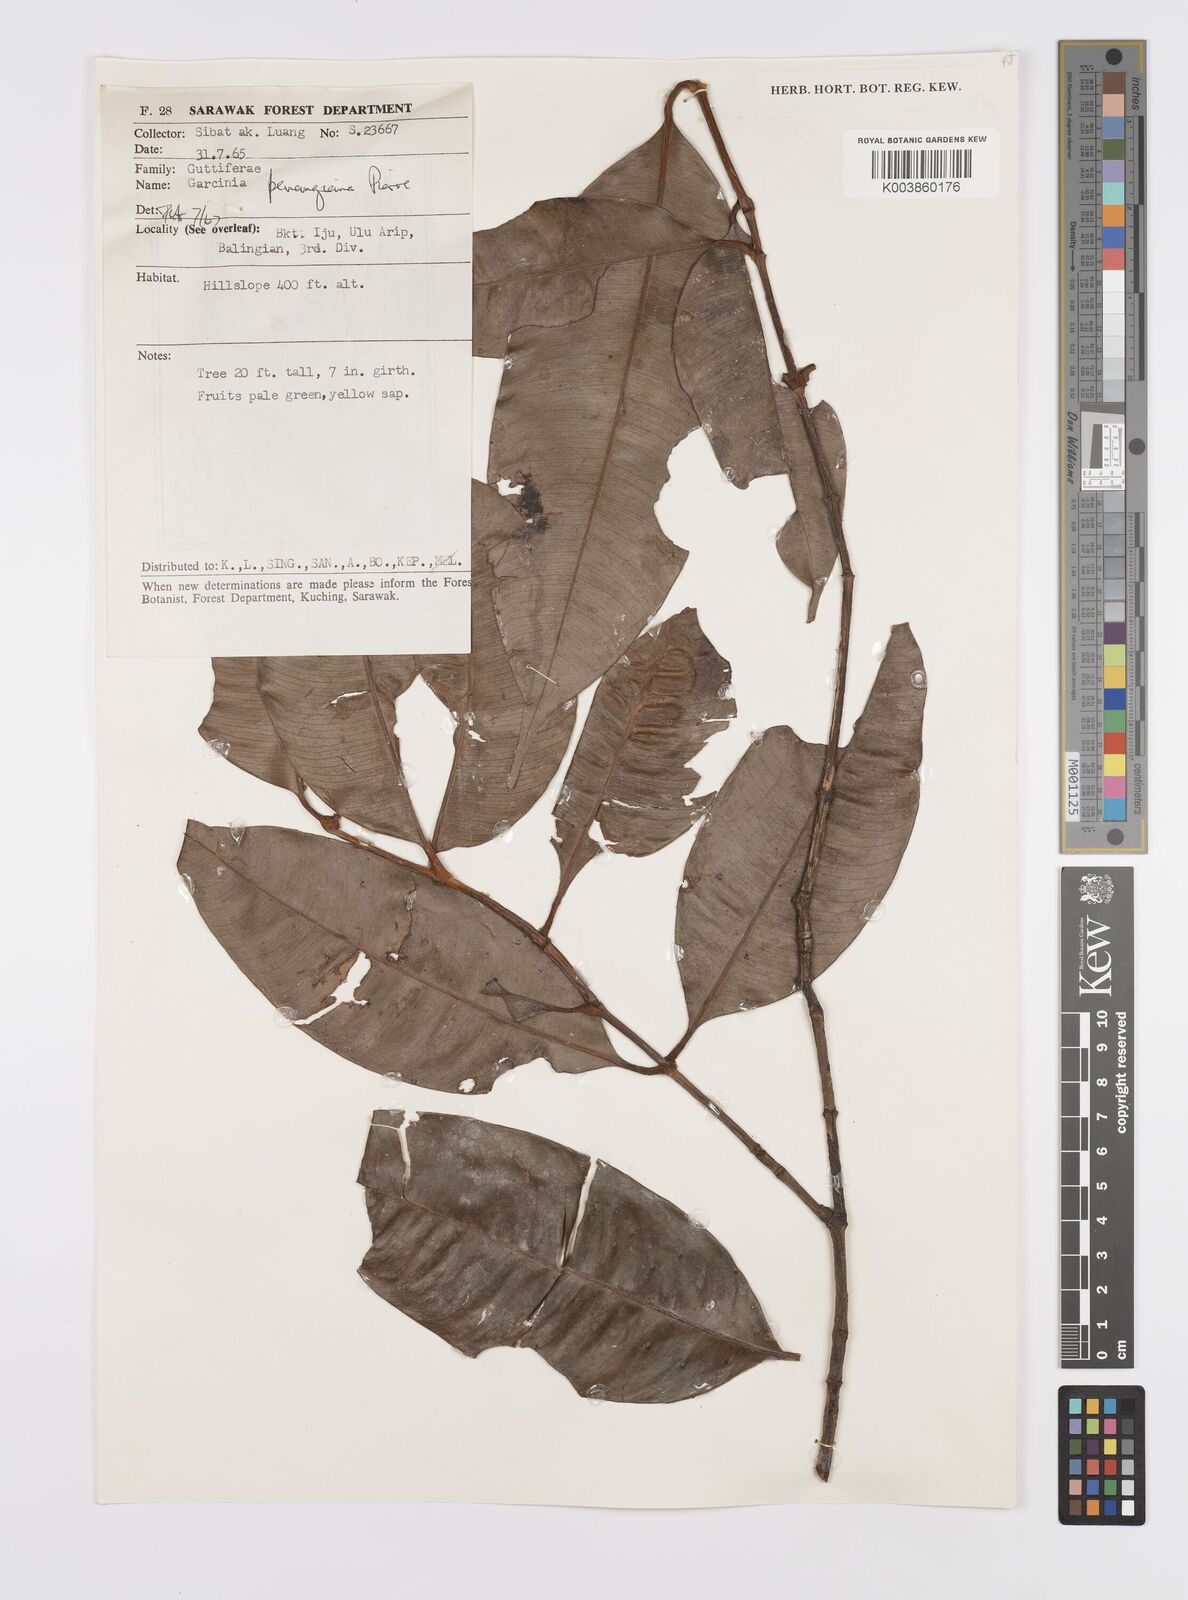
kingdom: Plantae
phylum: Tracheophyta
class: Magnoliopsida
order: Malpighiales
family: Clusiaceae
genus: Garcinia
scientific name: Garcinia penangiana
